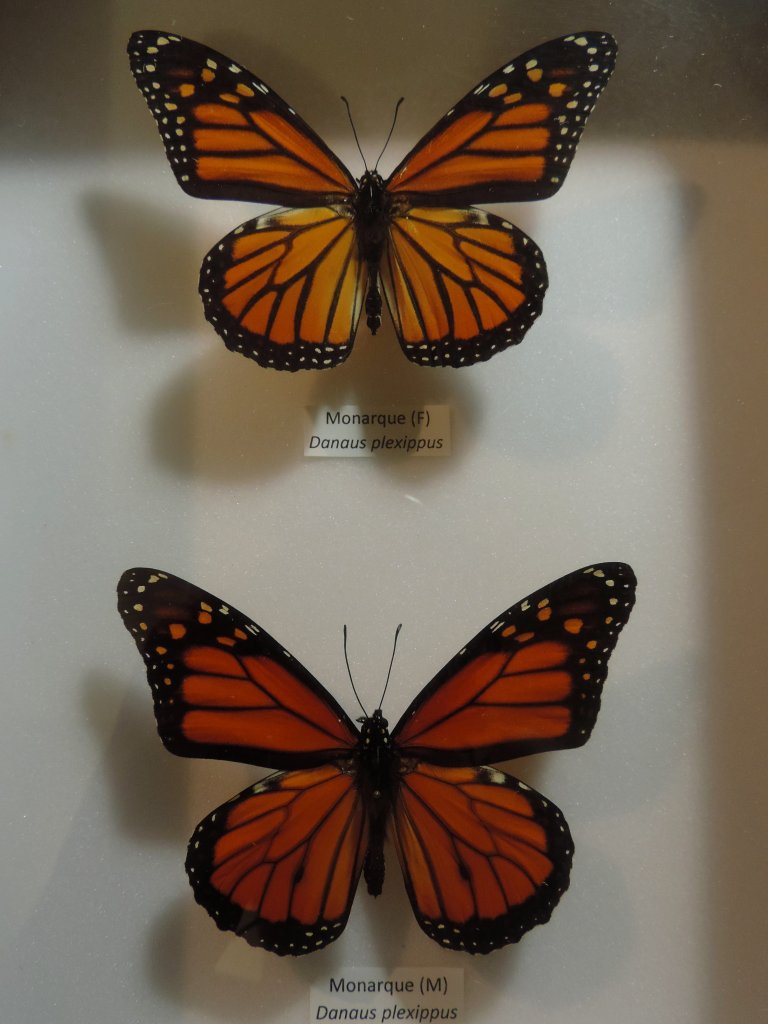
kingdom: Animalia
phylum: Arthropoda
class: Insecta
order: Lepidoptera
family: Nymphalidae
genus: Danaus
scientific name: Danaus plexippus
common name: Monarch
